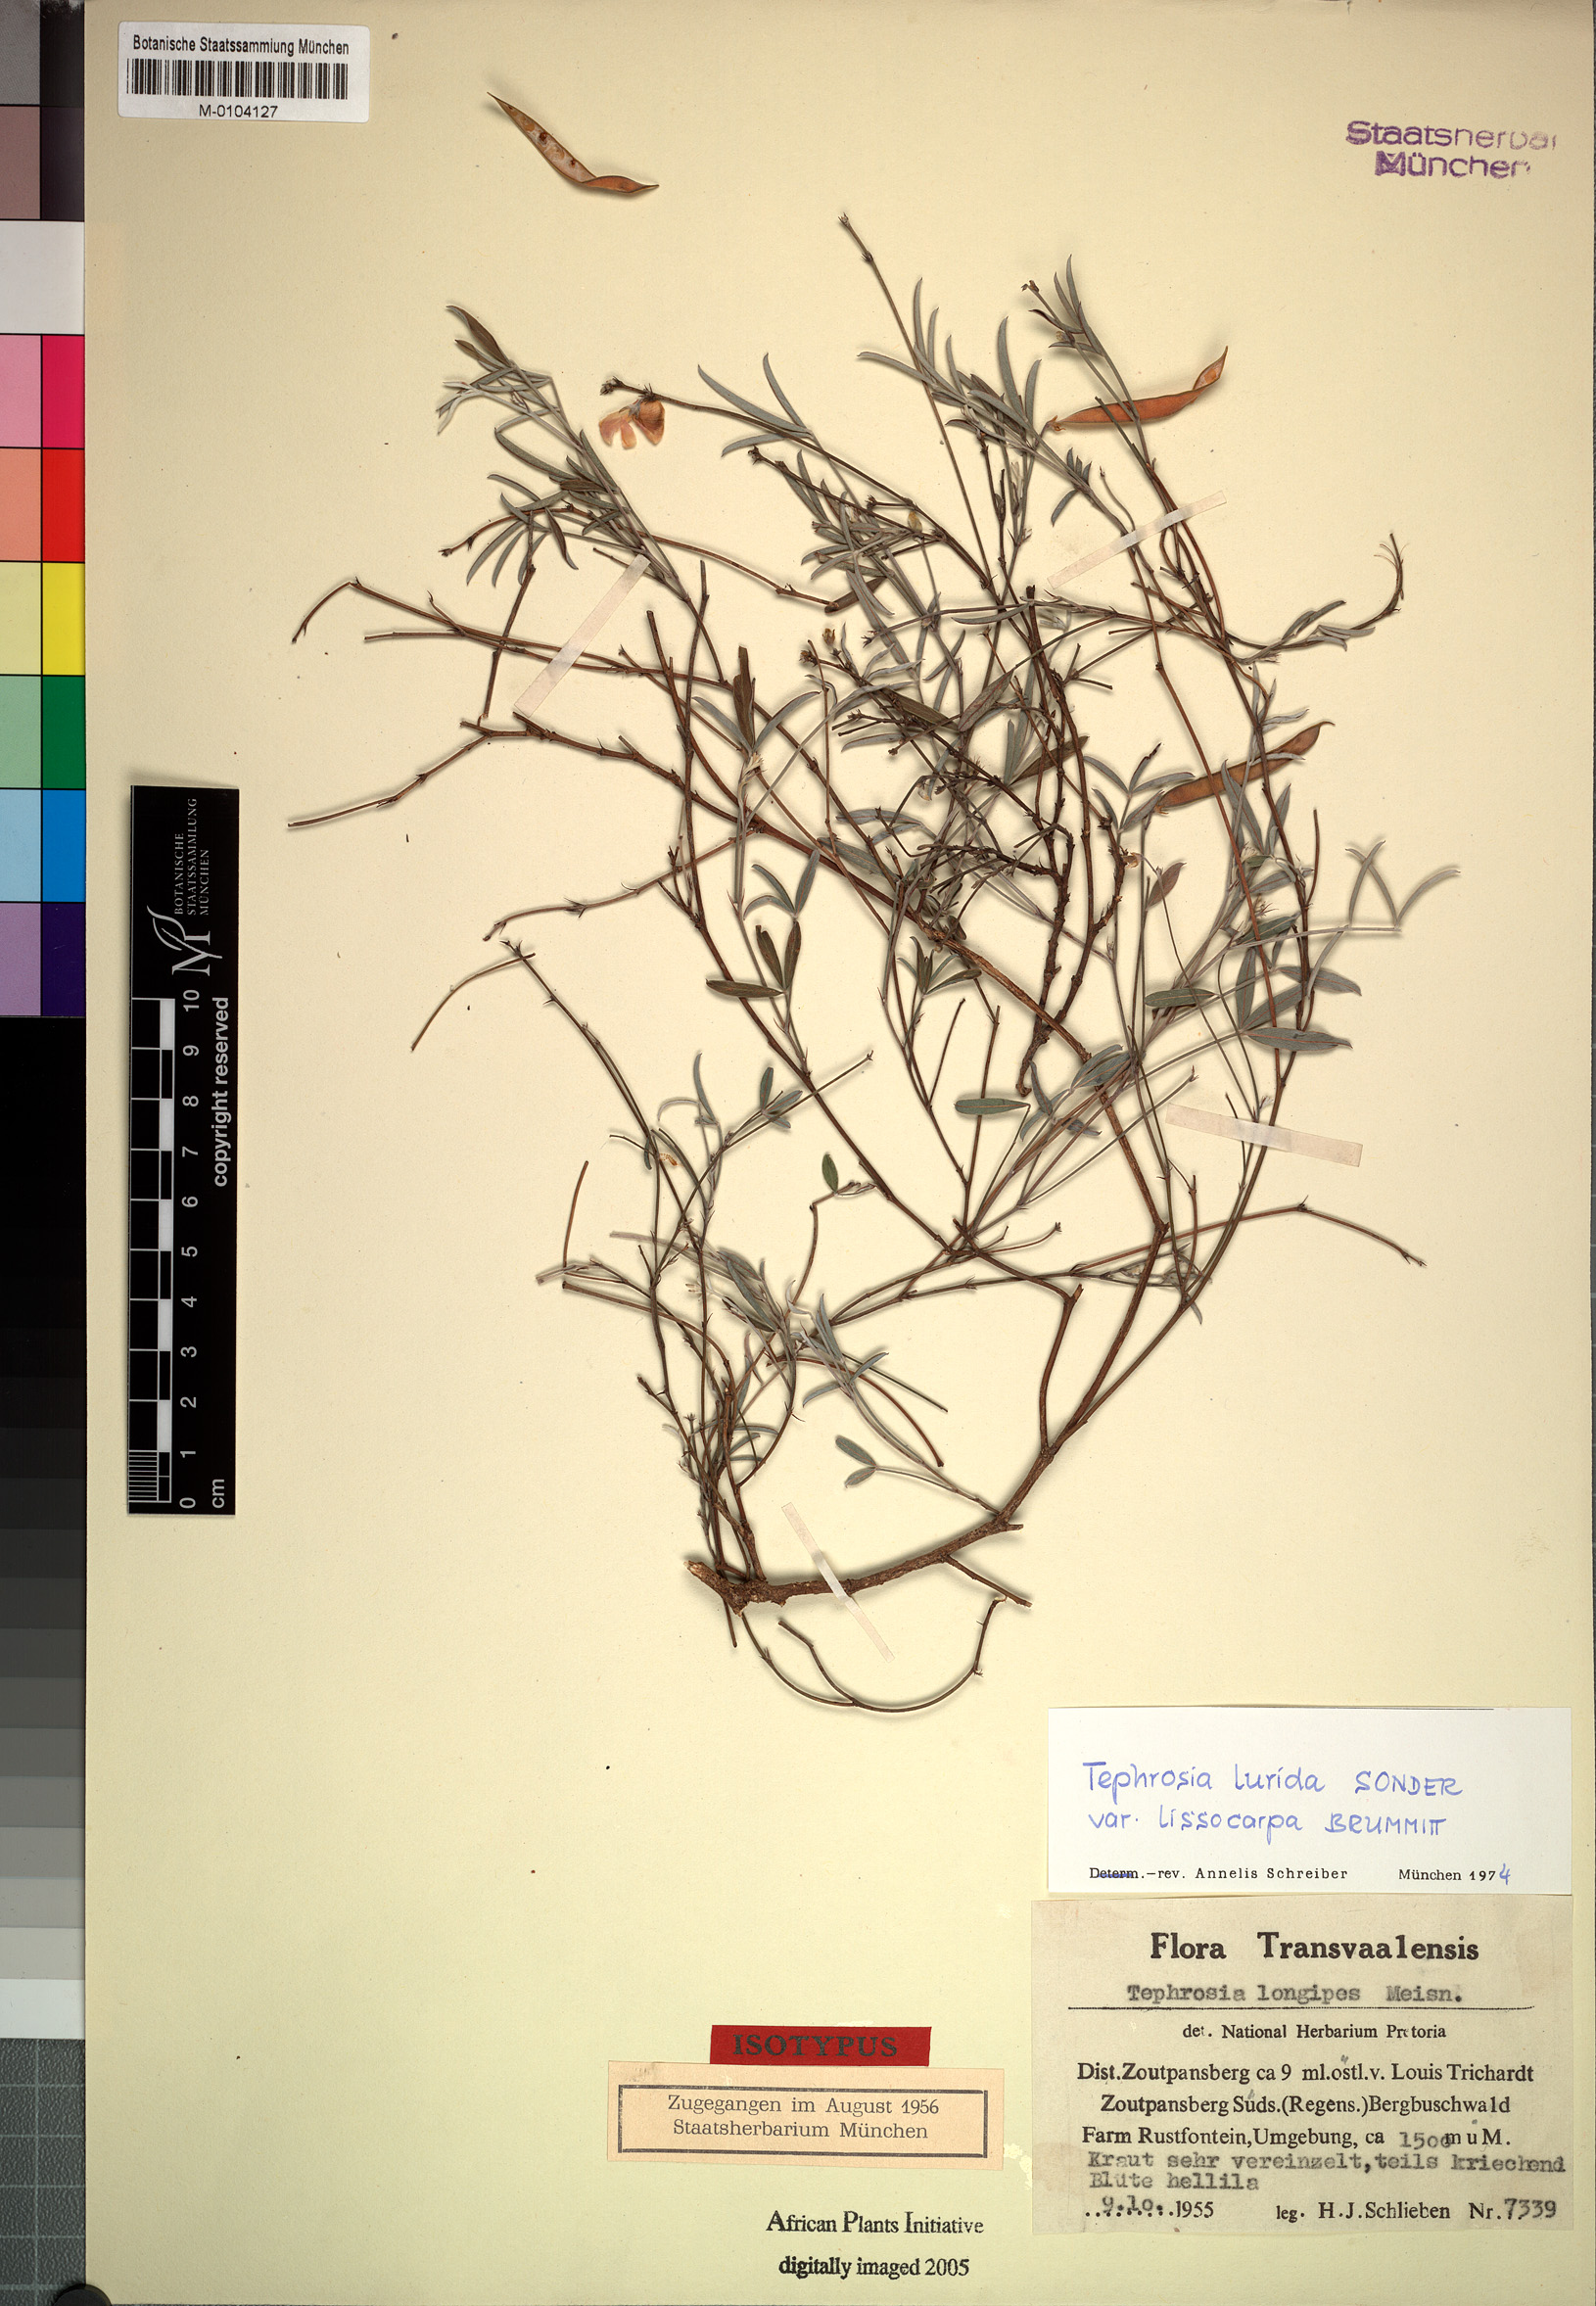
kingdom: Plantae
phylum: Tracheophyta
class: Magnoliopsida
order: Fabales
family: Fabaceae
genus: Tephrosia
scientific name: Tephrosia longipes
